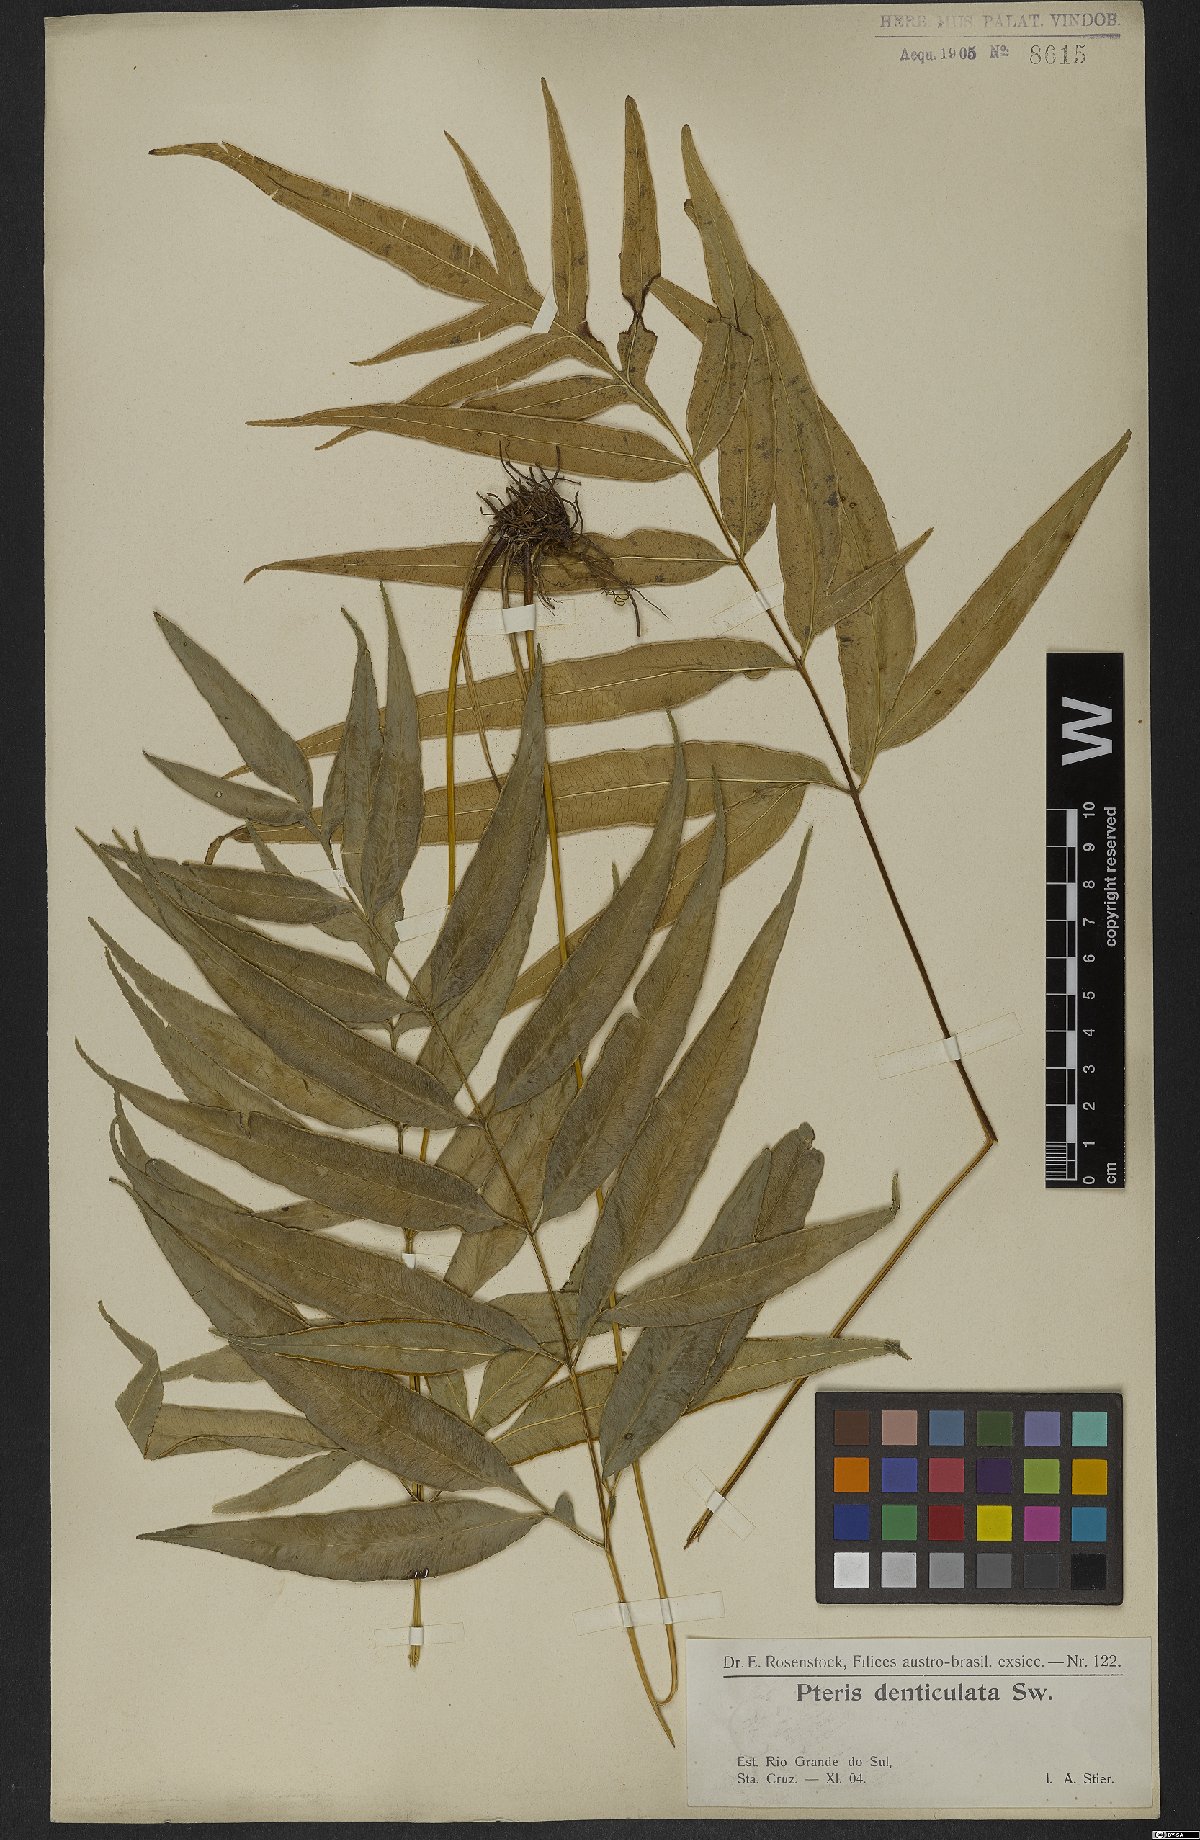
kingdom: Plantae
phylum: Tracheophyta
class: Polypodiopsida
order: Polypodiales
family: Pteridaceae
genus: Pteris
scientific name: Pteris denticulata
